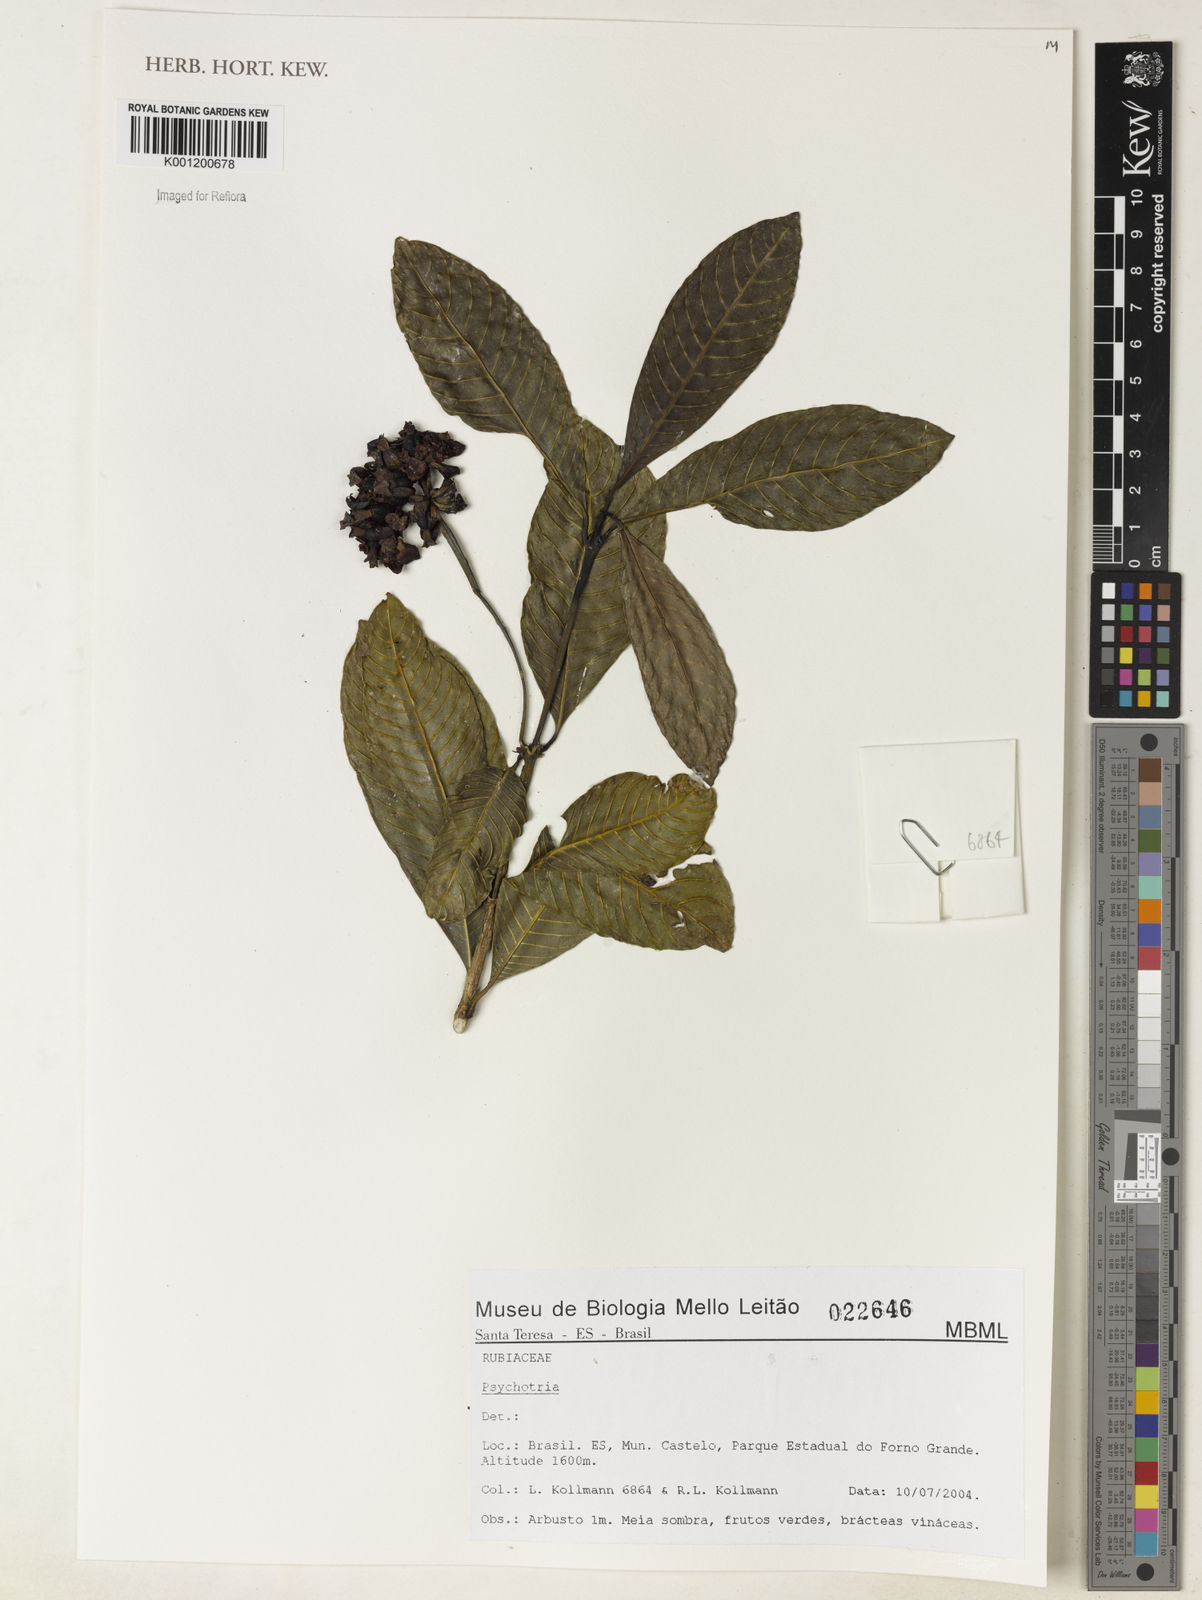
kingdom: Plantae
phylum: Tracheophyta
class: Magnoliopsida
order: Gentianales
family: Rubiaceae
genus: Psychotria
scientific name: Psychotria
